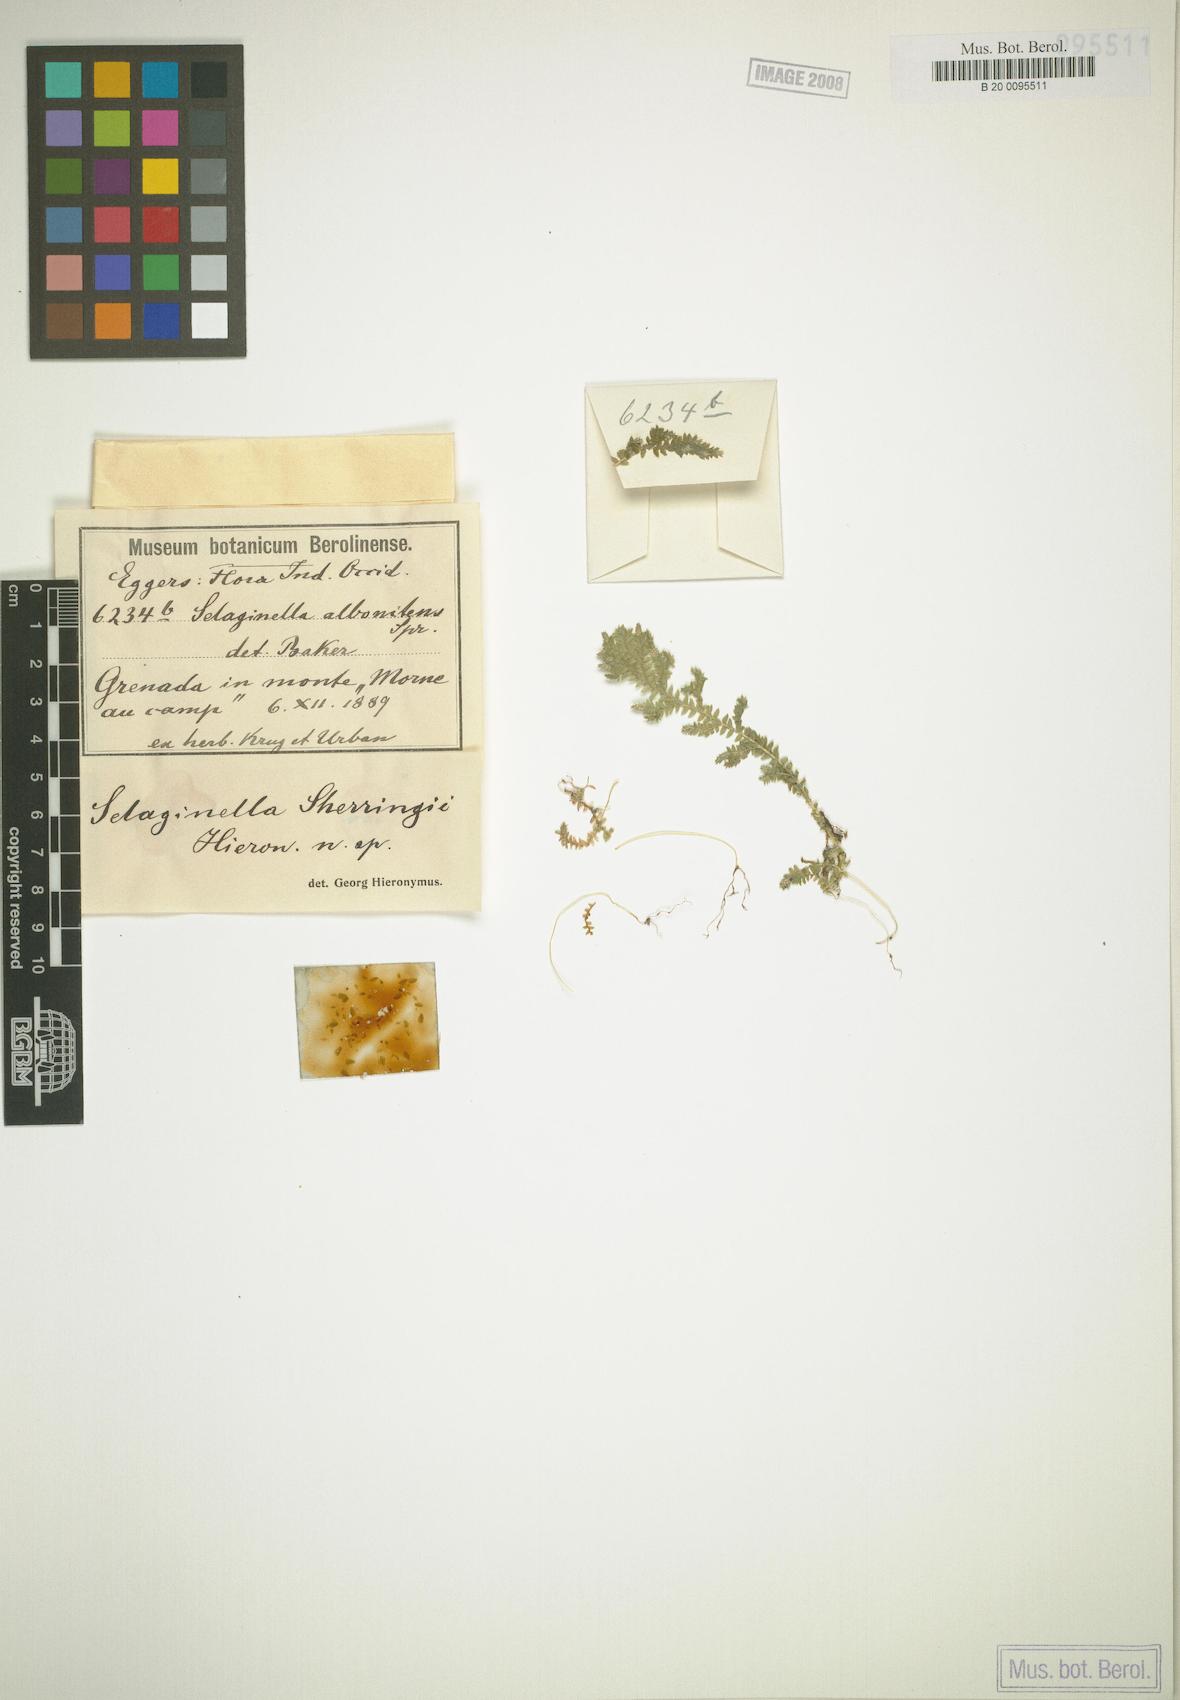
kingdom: Plantae
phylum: Tracheophyta
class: Lycopodiopsida
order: Selaginellales
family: Selaginellaceae
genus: Selaginella
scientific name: Selaginella substipitata
